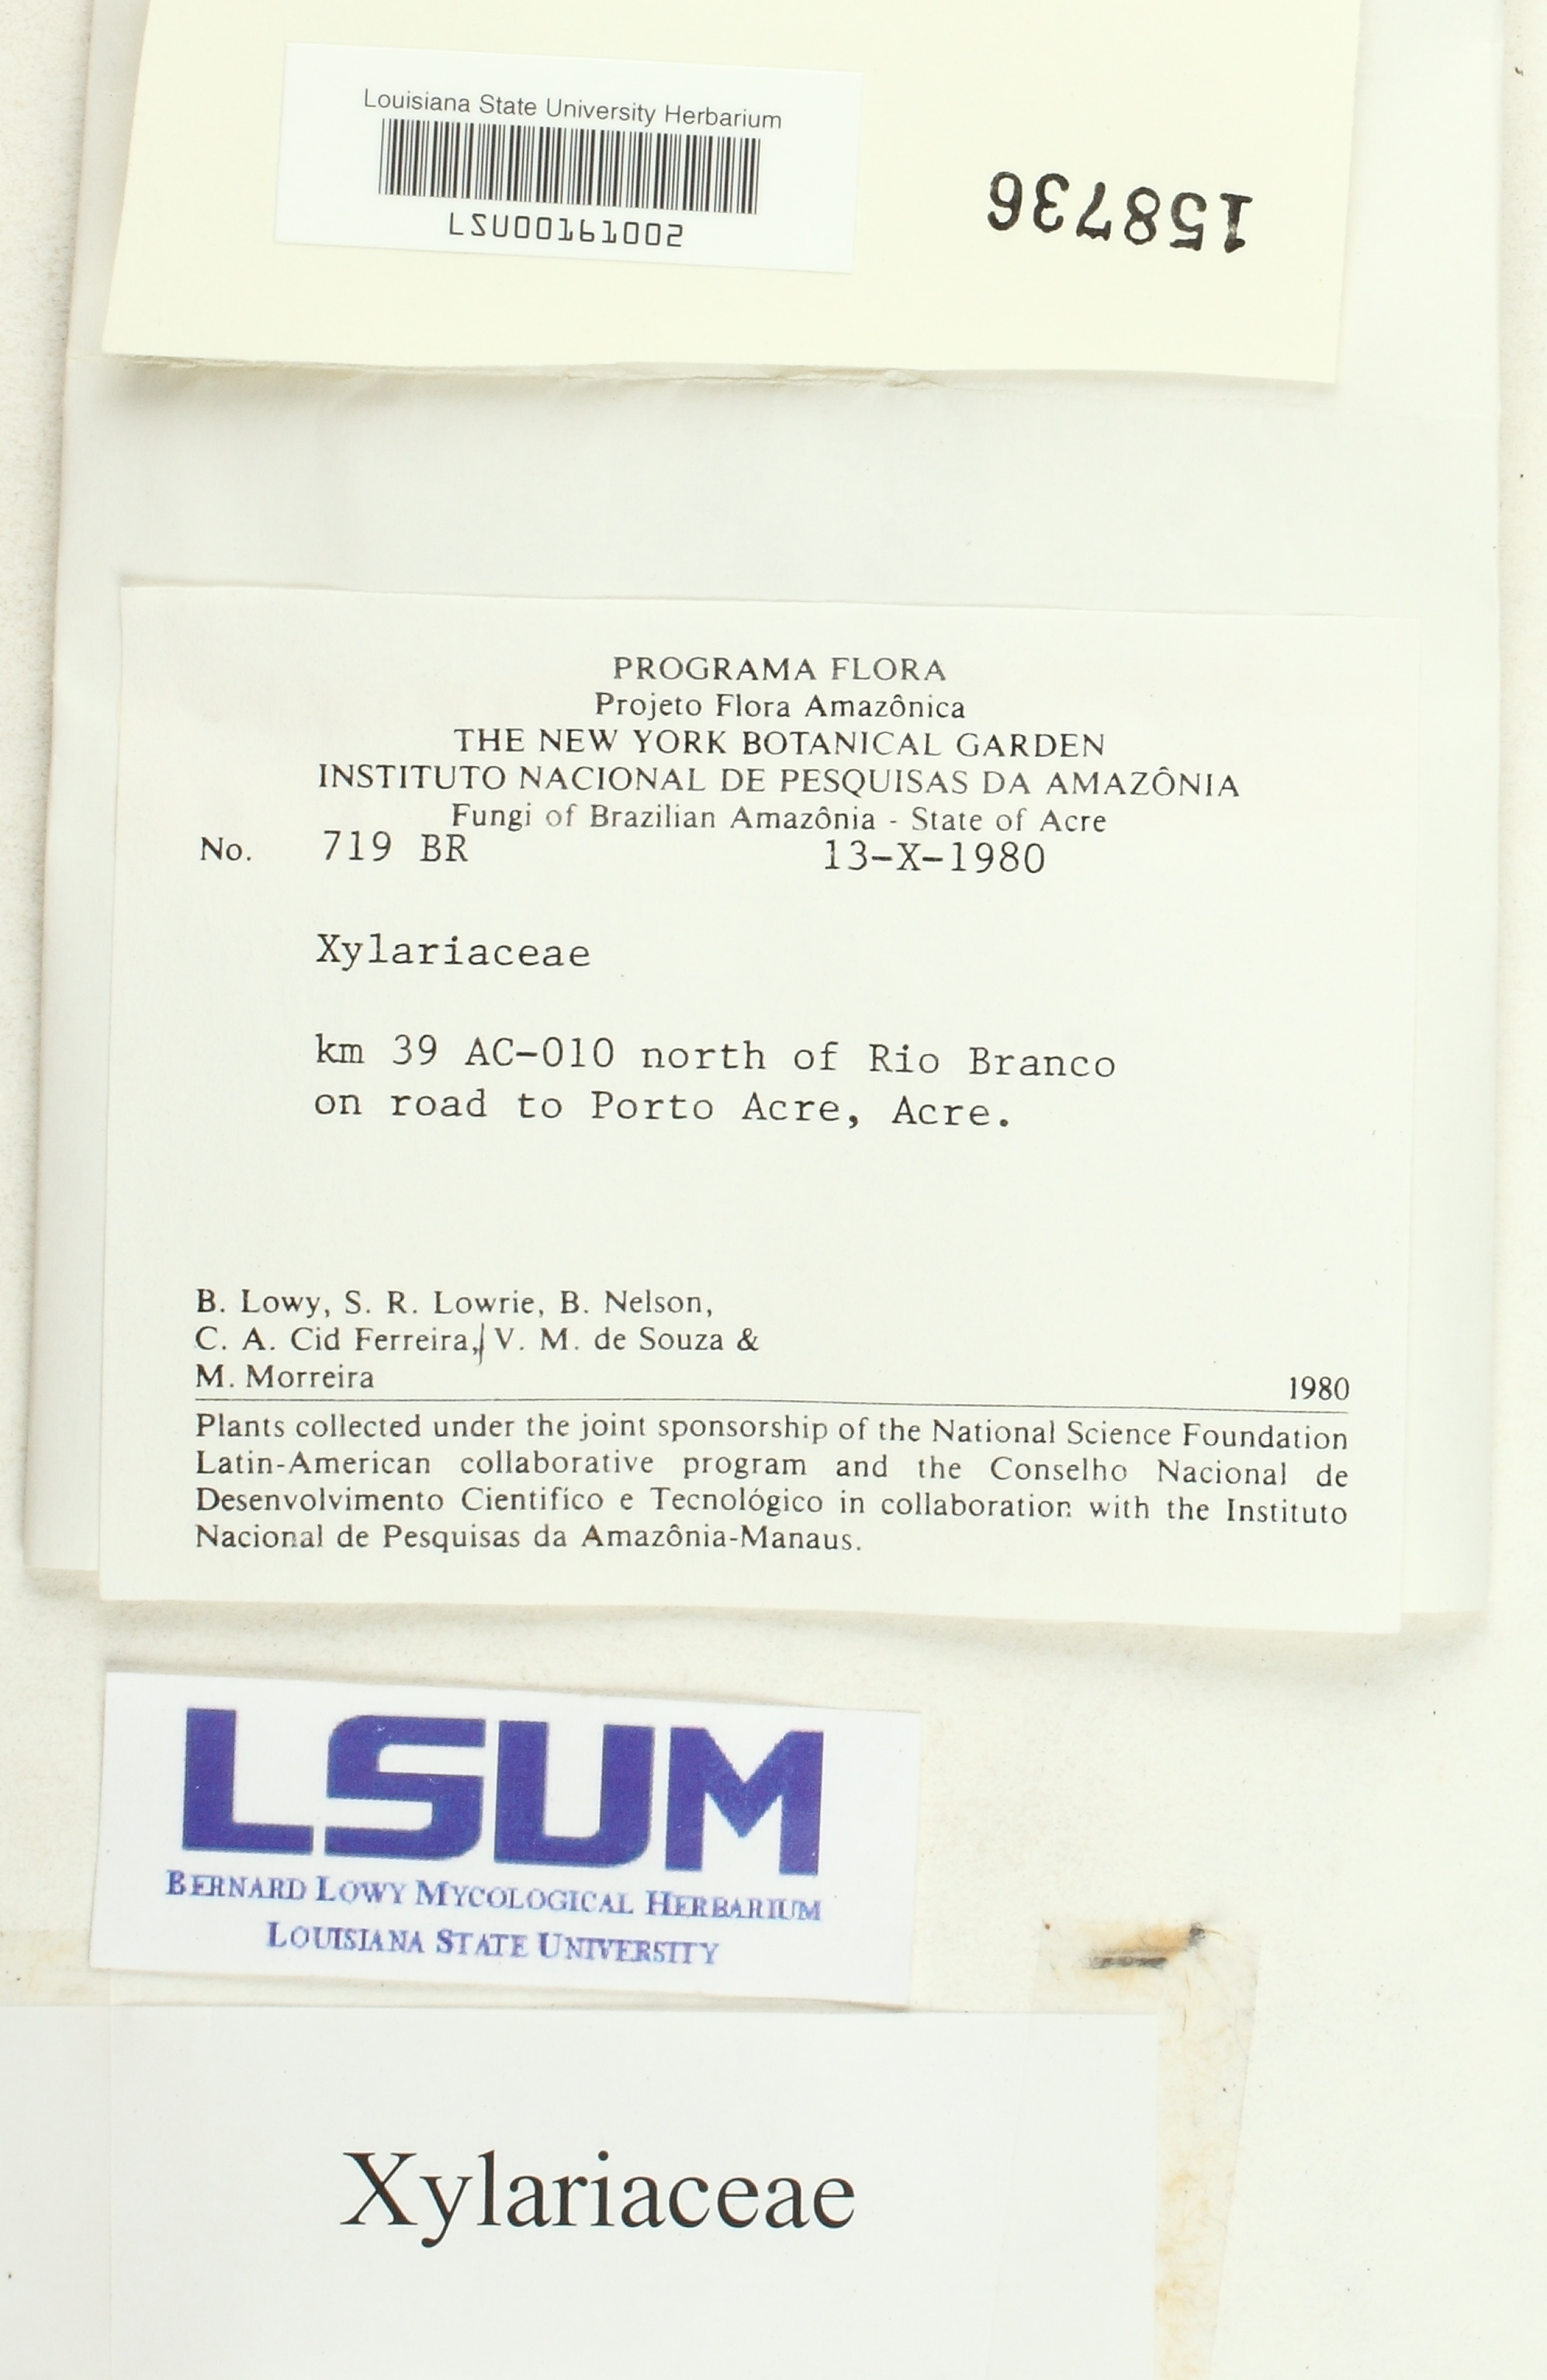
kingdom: Fungi
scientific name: Fungi
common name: Fungi
